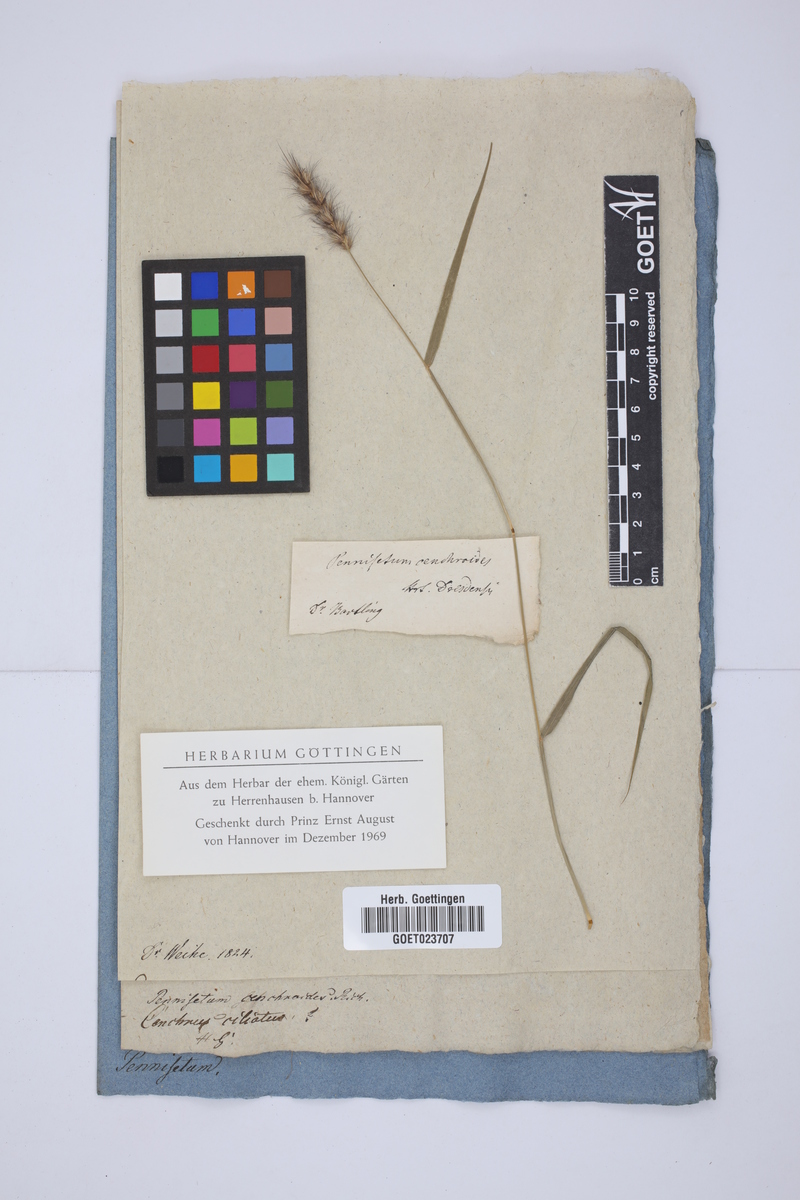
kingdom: Plantae
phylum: Tracheophyta
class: Liliopsida
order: Poales
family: Poaceae
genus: Cenchrus
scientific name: Cenchrus ciliaris
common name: Buffelgrass
